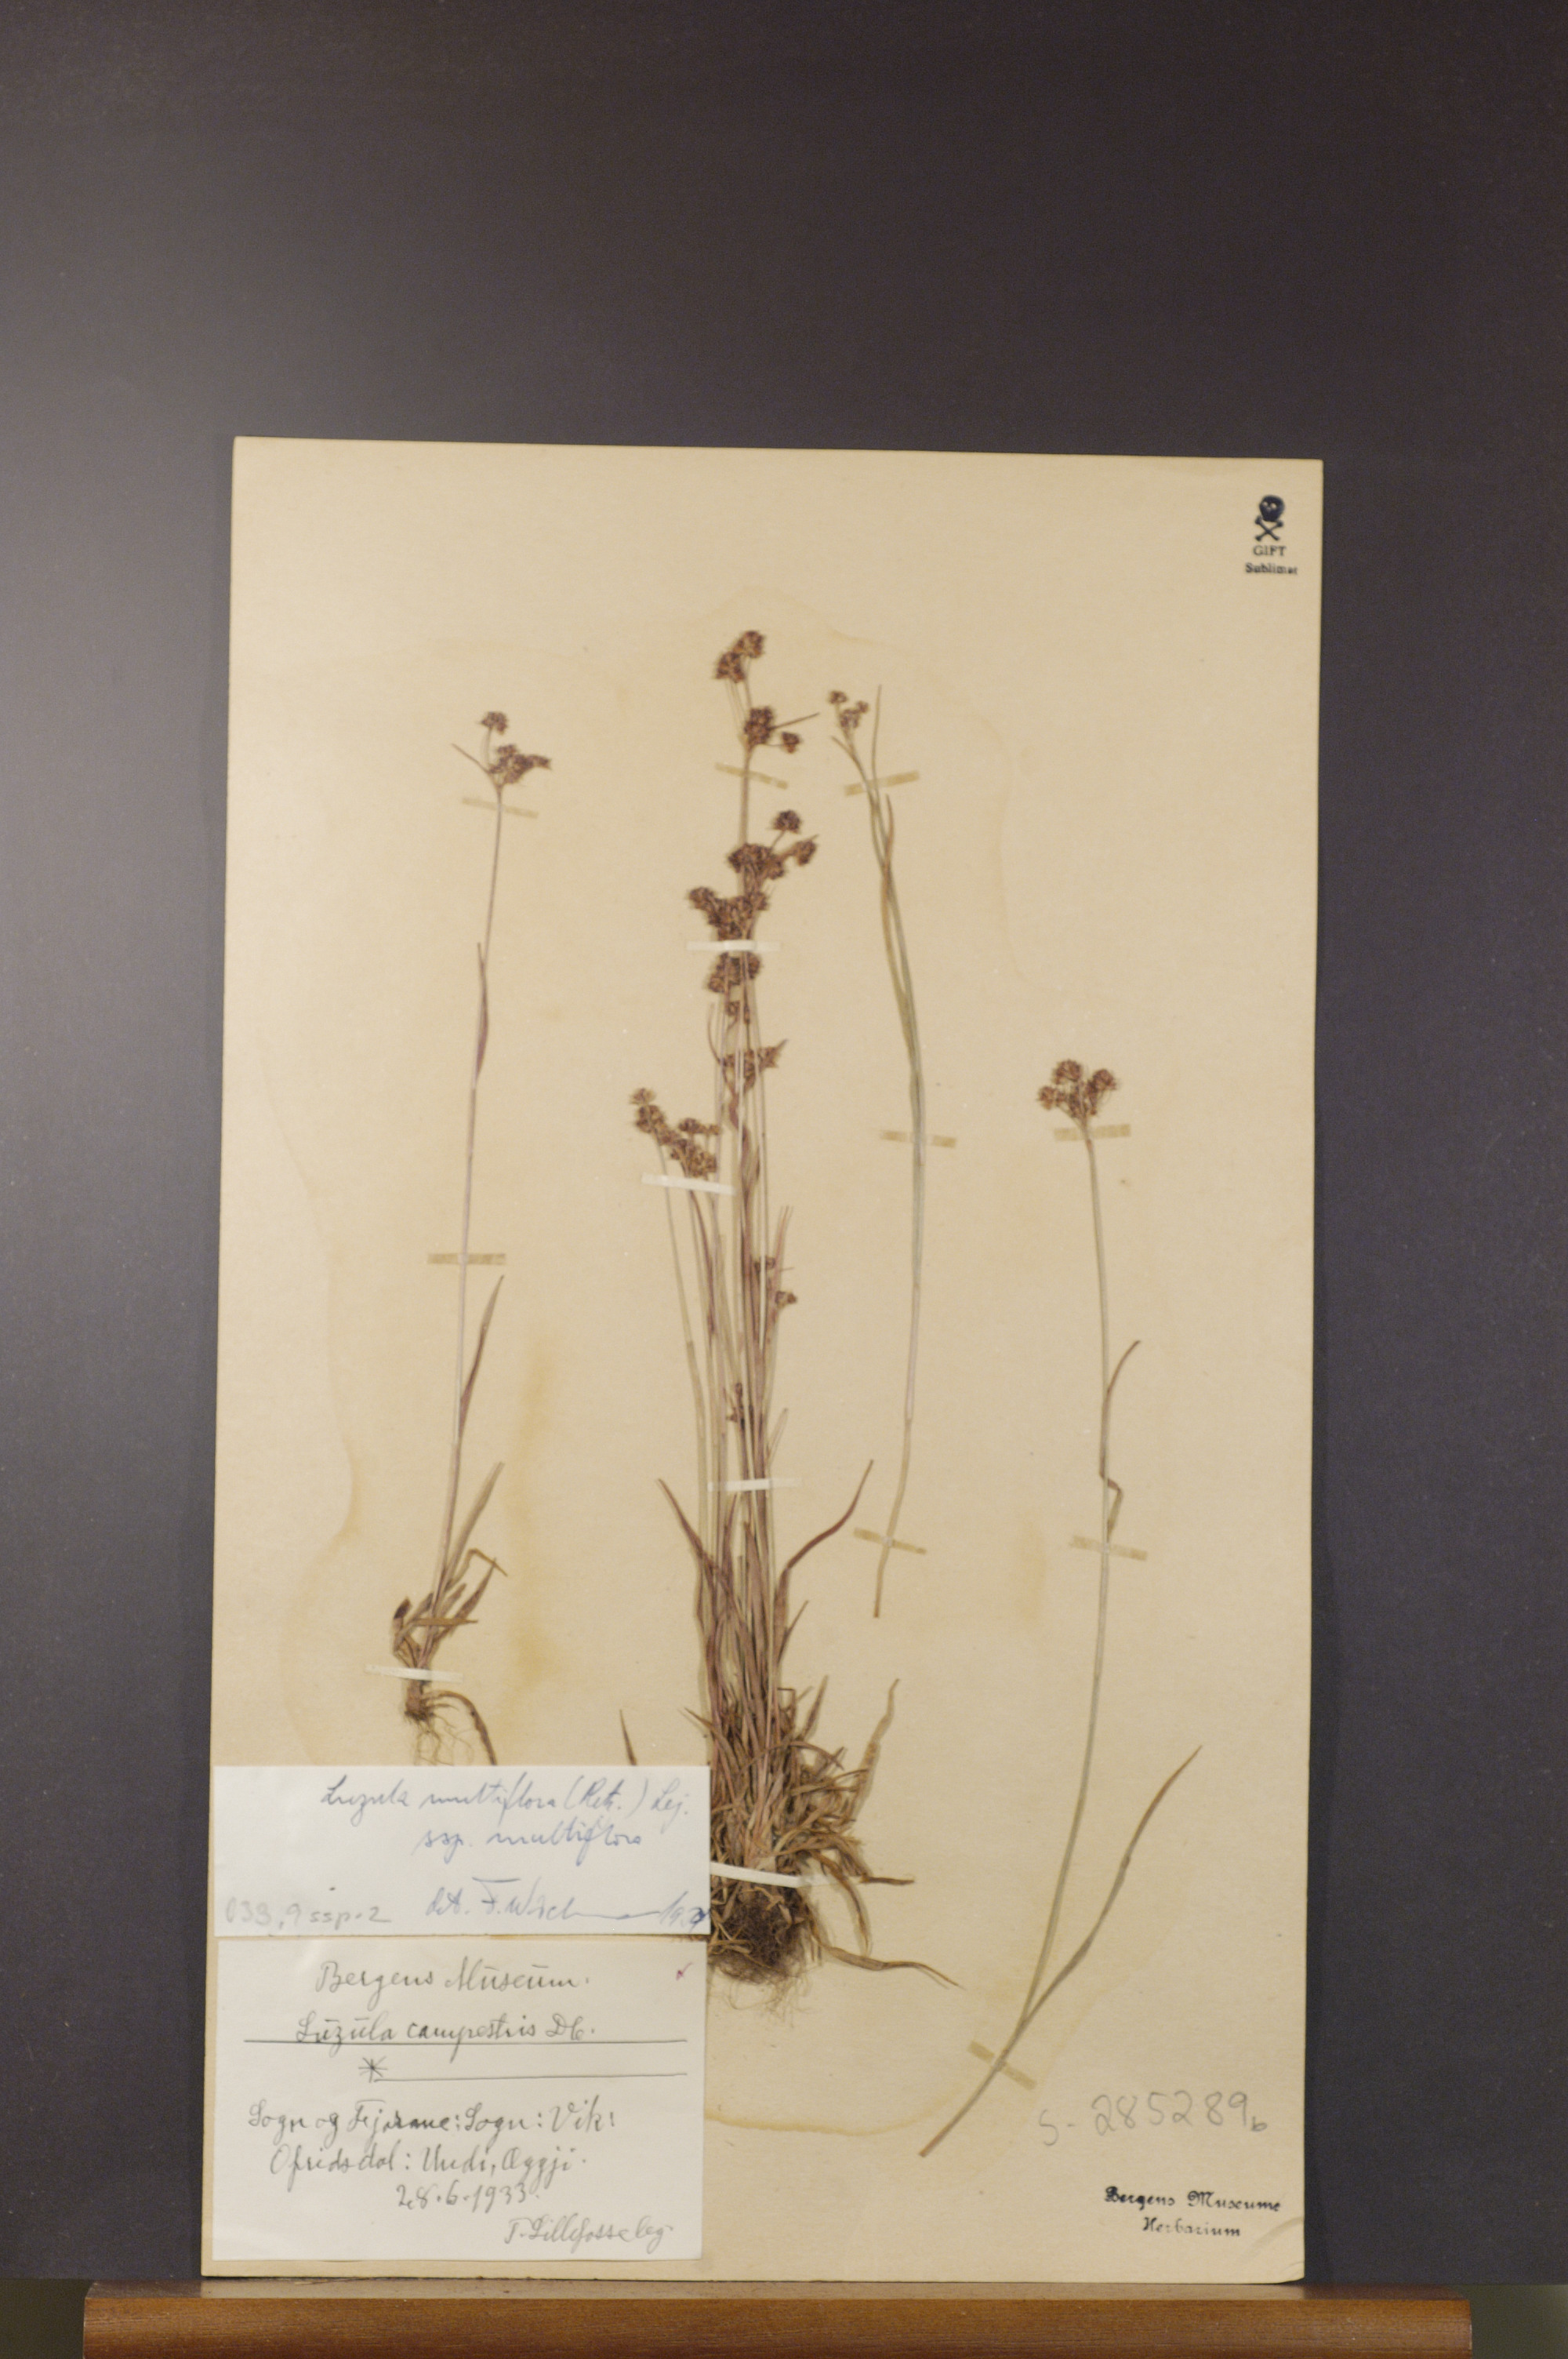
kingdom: Plantae
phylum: Tracheophyta
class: Liliopsida
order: Poales
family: Juncaceae
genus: Luzula
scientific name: Luzula multiflora
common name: Heath wood-rush
